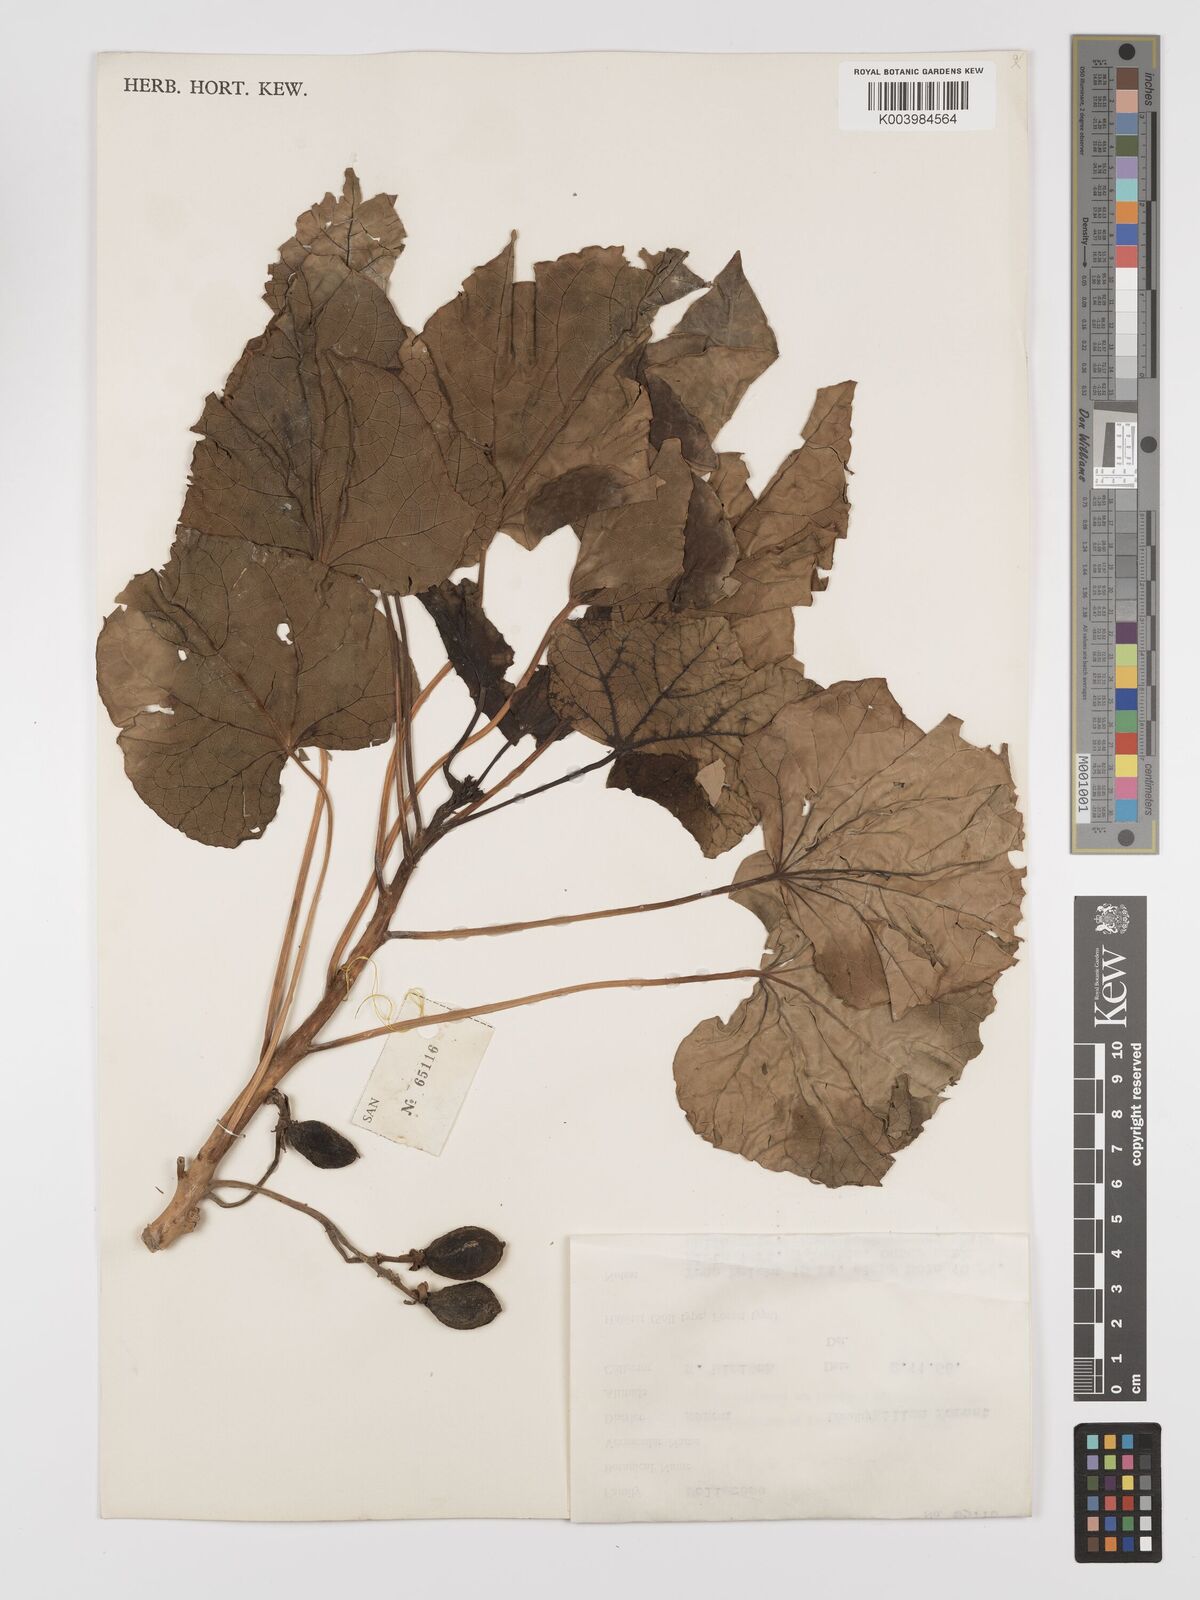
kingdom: Plantae
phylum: Tracheophyta
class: Magnoliopsida
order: Malpighiales
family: Euphorbiaceae
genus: Jatropha
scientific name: Jatropha curcas
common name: Barbados nut
